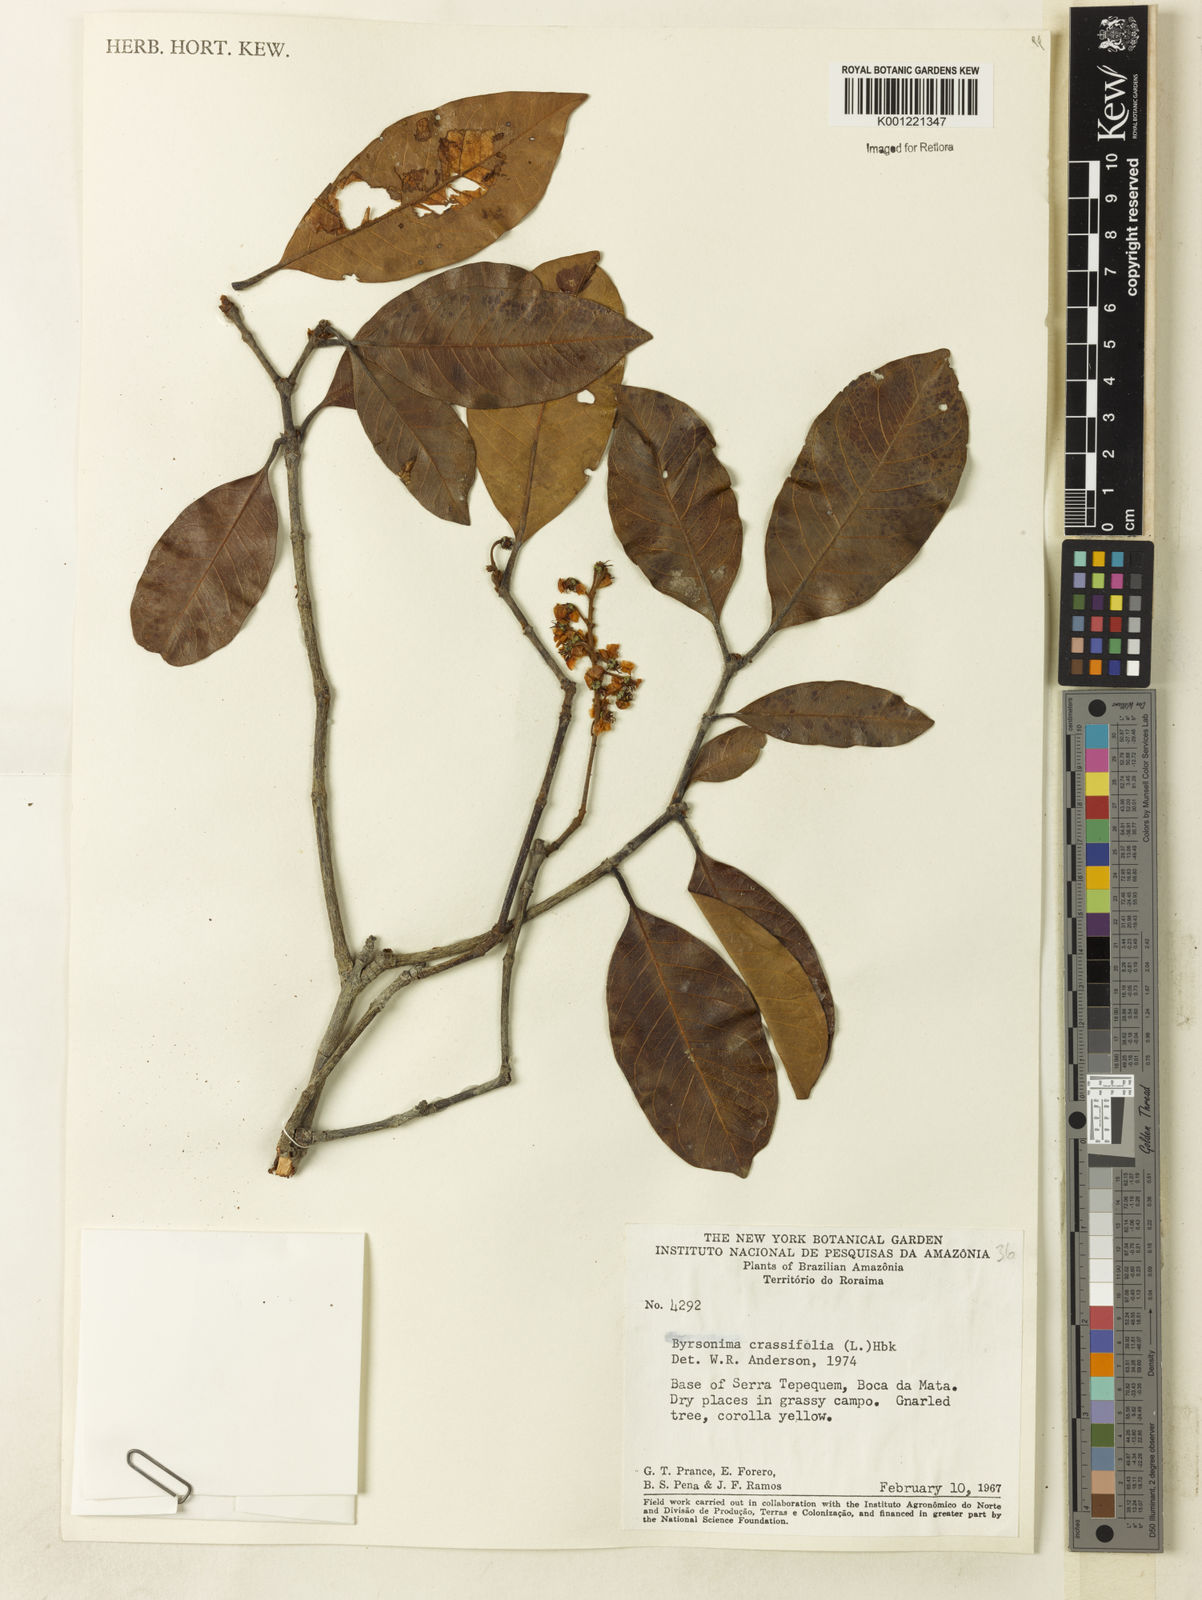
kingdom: Plantae
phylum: Tracheophyta
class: Magnoliopsida
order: Malpighiales
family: Malpighiaceae
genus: Byrsonima
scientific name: Byrsonima crassifolia
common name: Golden spoon
